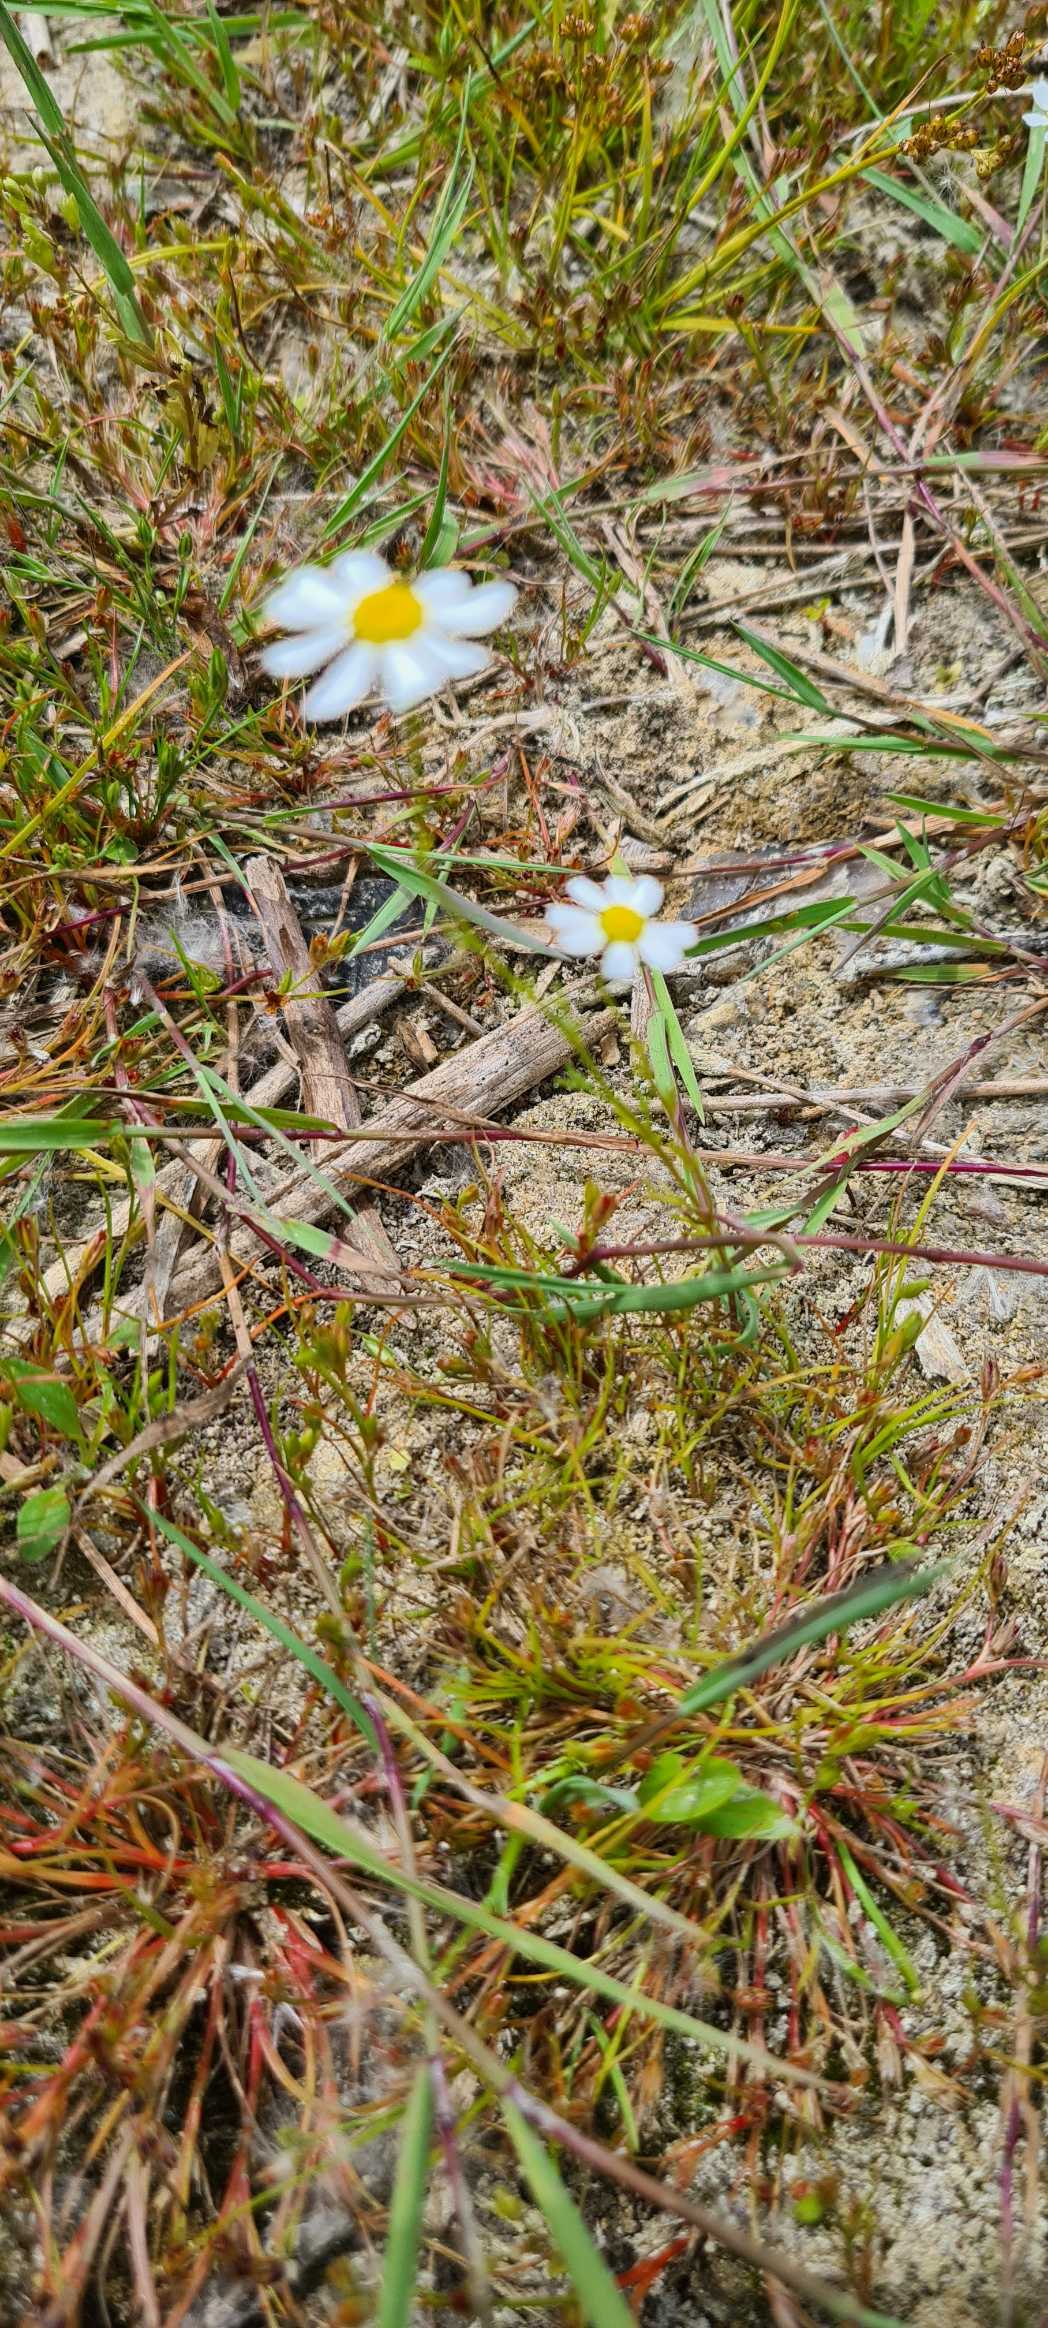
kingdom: Plantae
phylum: Tracheophyta
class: Magnoliopsida
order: Asterales
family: Asteraceae
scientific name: Asteraceae
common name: Kurvblomstfamilien
